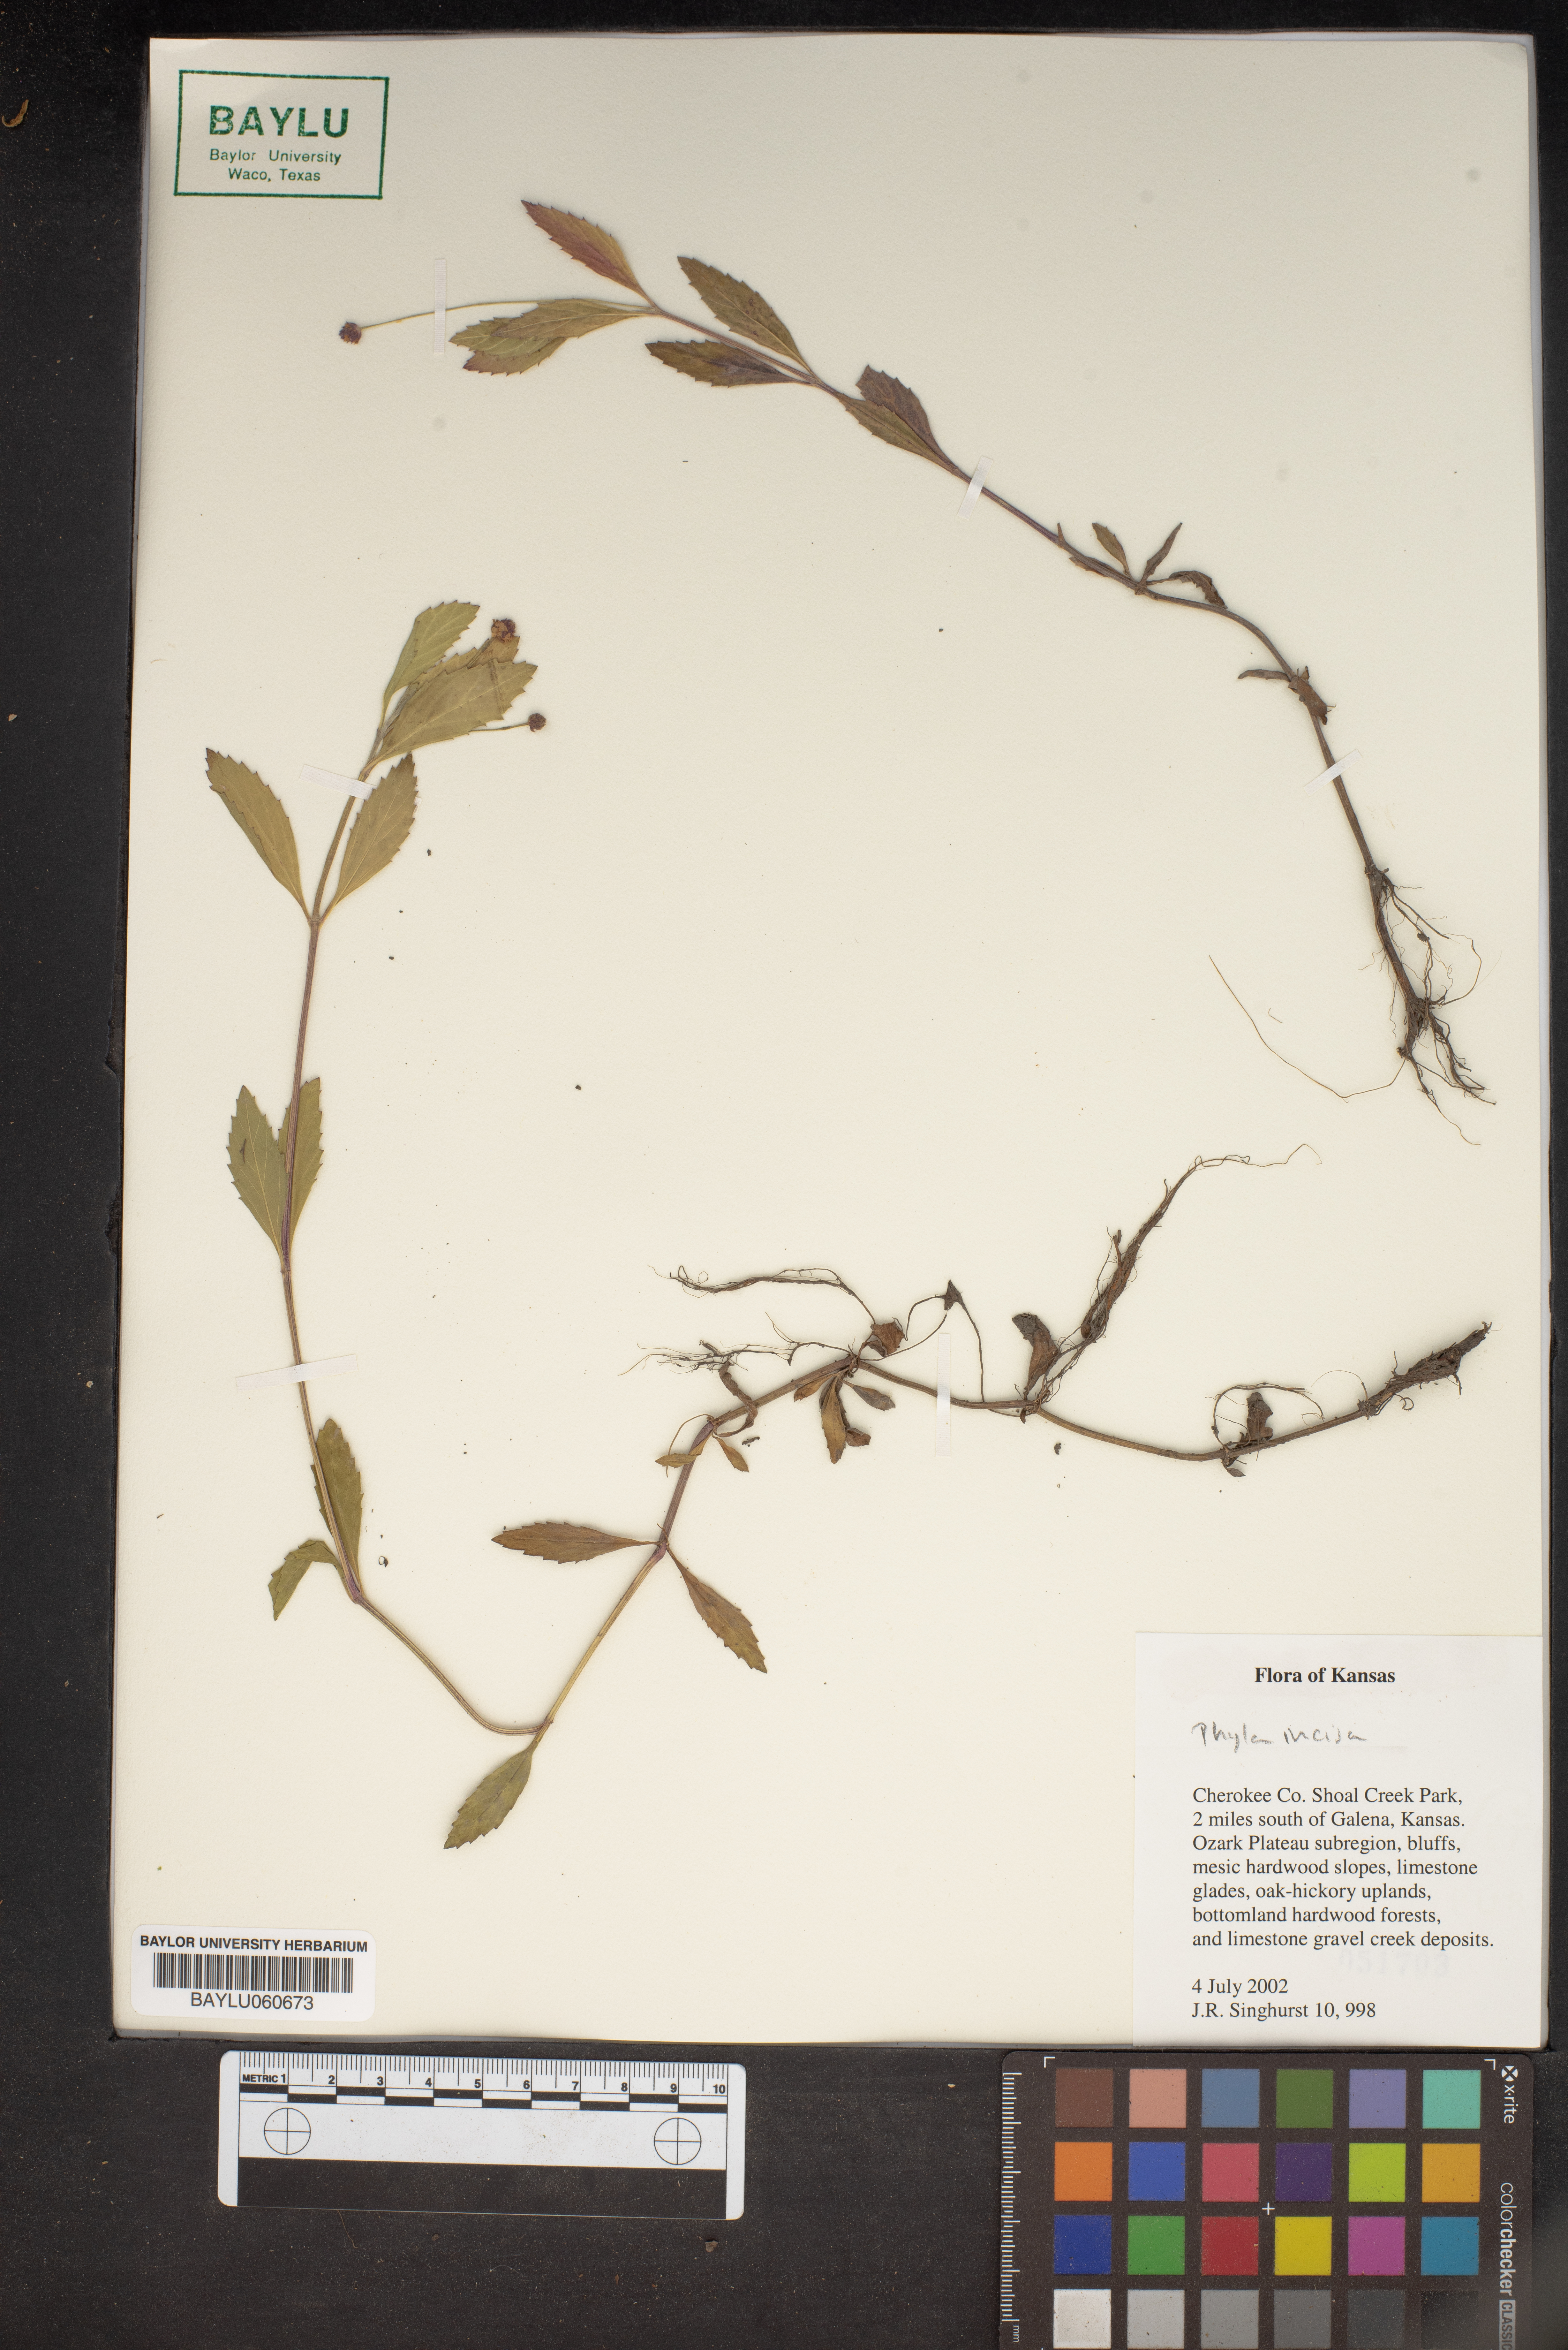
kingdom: Plantae
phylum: Tracheophyta
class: Magnoliopsida
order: Lamiales
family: Verbenaceae
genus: Phyla
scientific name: Phyla nodiflora
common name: Frogfruit
